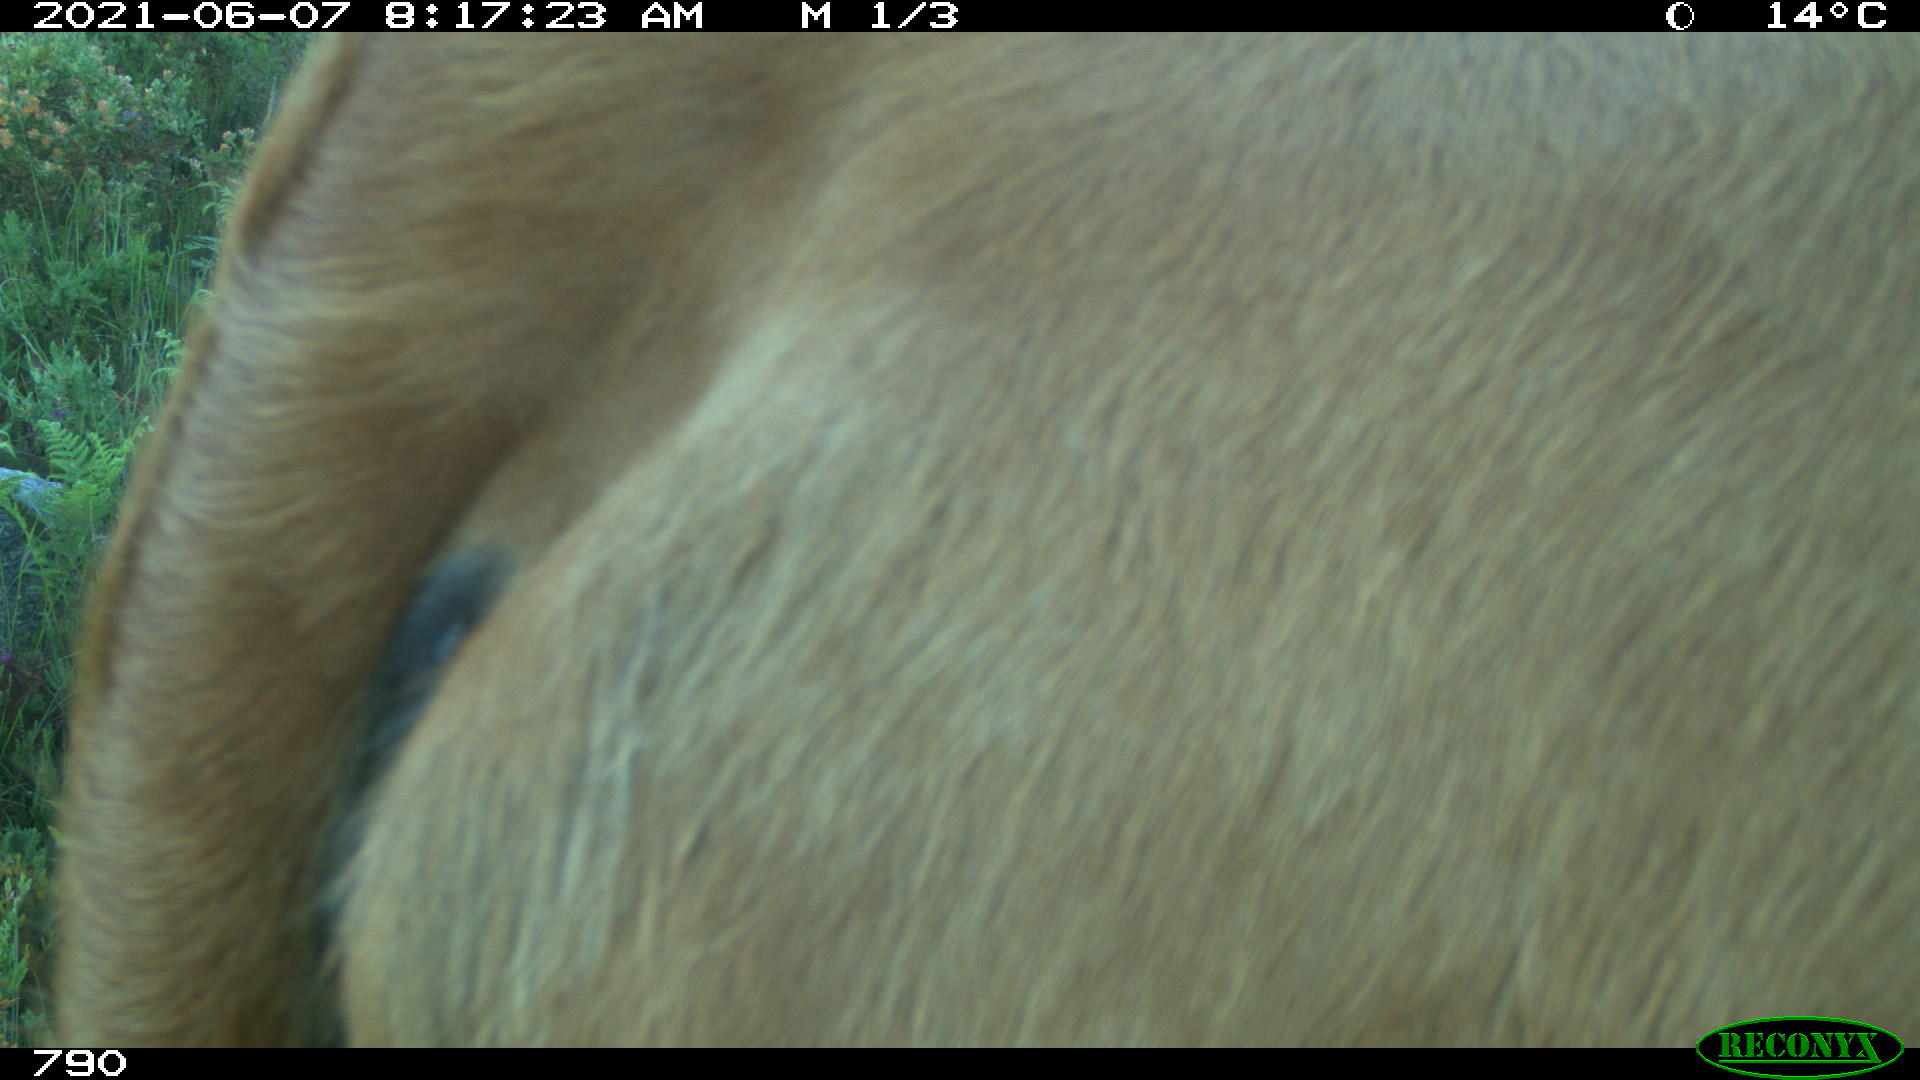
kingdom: Animalia
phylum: Chordata
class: Mammalia
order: Artiodactyla
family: Bovidae
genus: Bos
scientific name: Bos taurus
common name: Domesticated cattle
